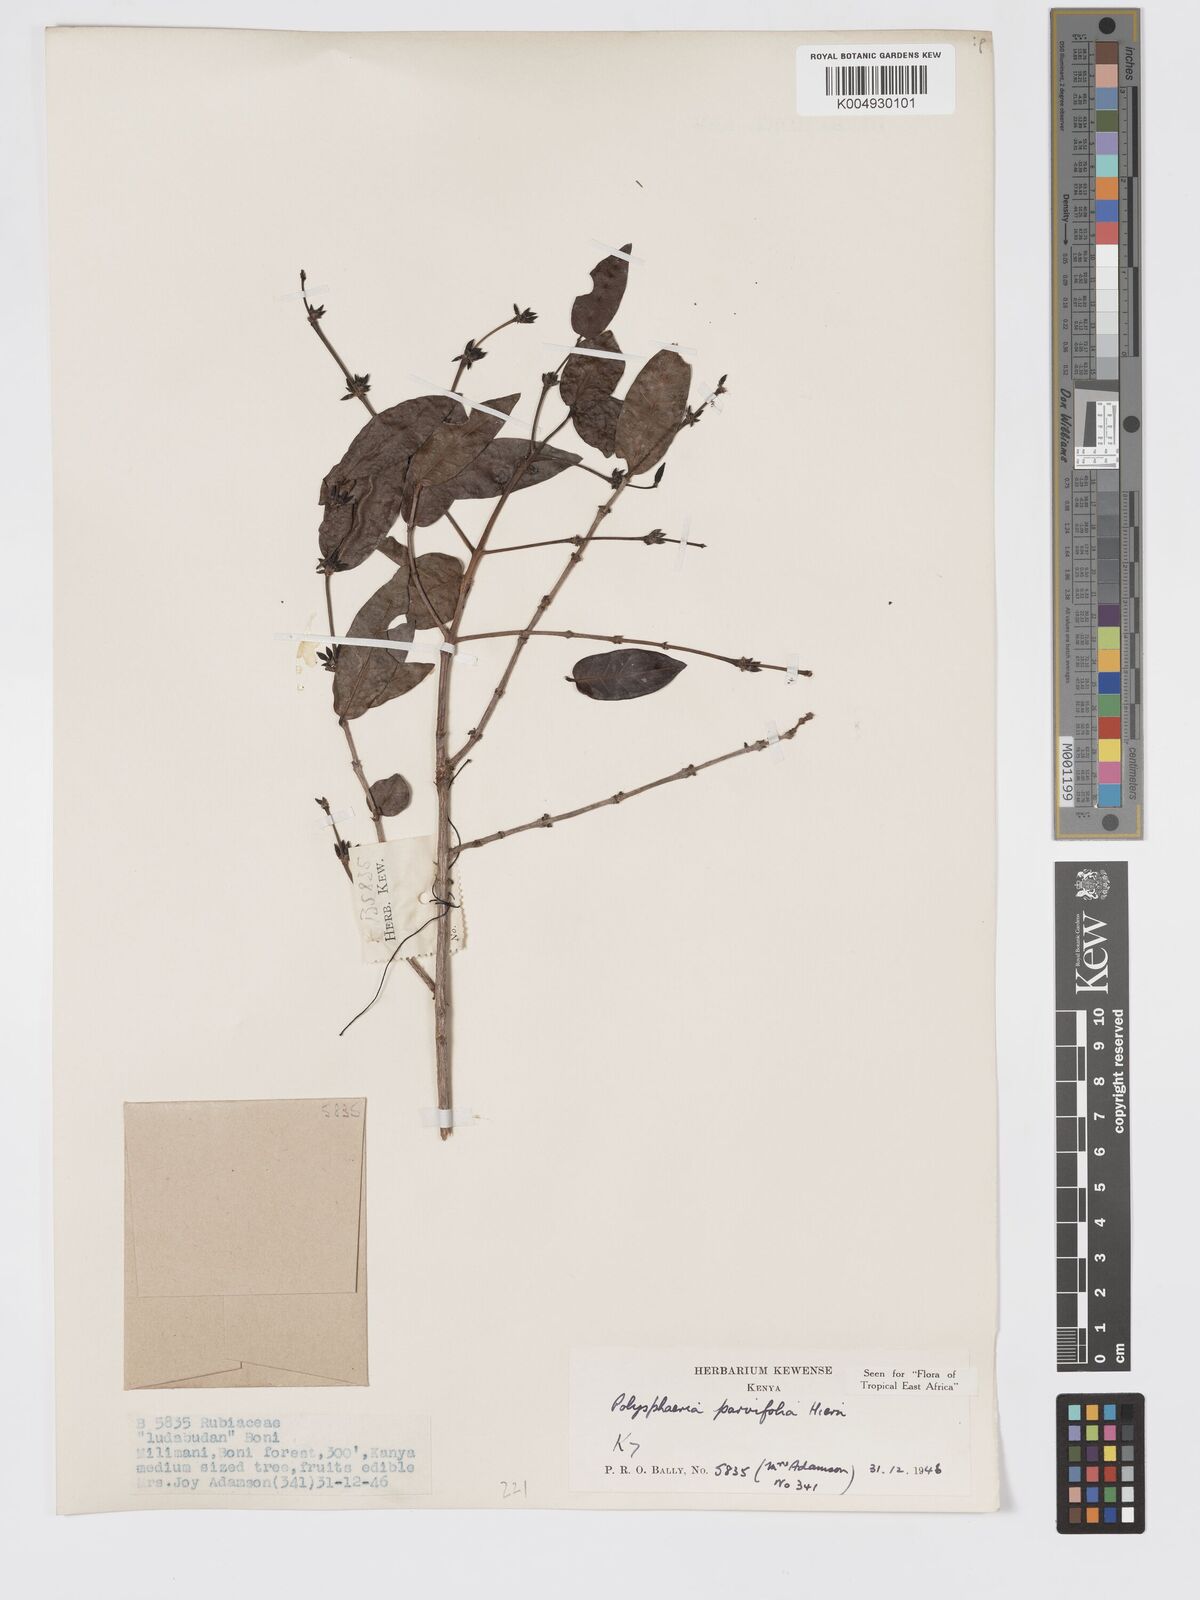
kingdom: Plantae
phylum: Tracheophyta
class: Magnoliopsida
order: Gentianales
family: Rubiaceae
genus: Eumachia
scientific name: Eumachia parviflora
